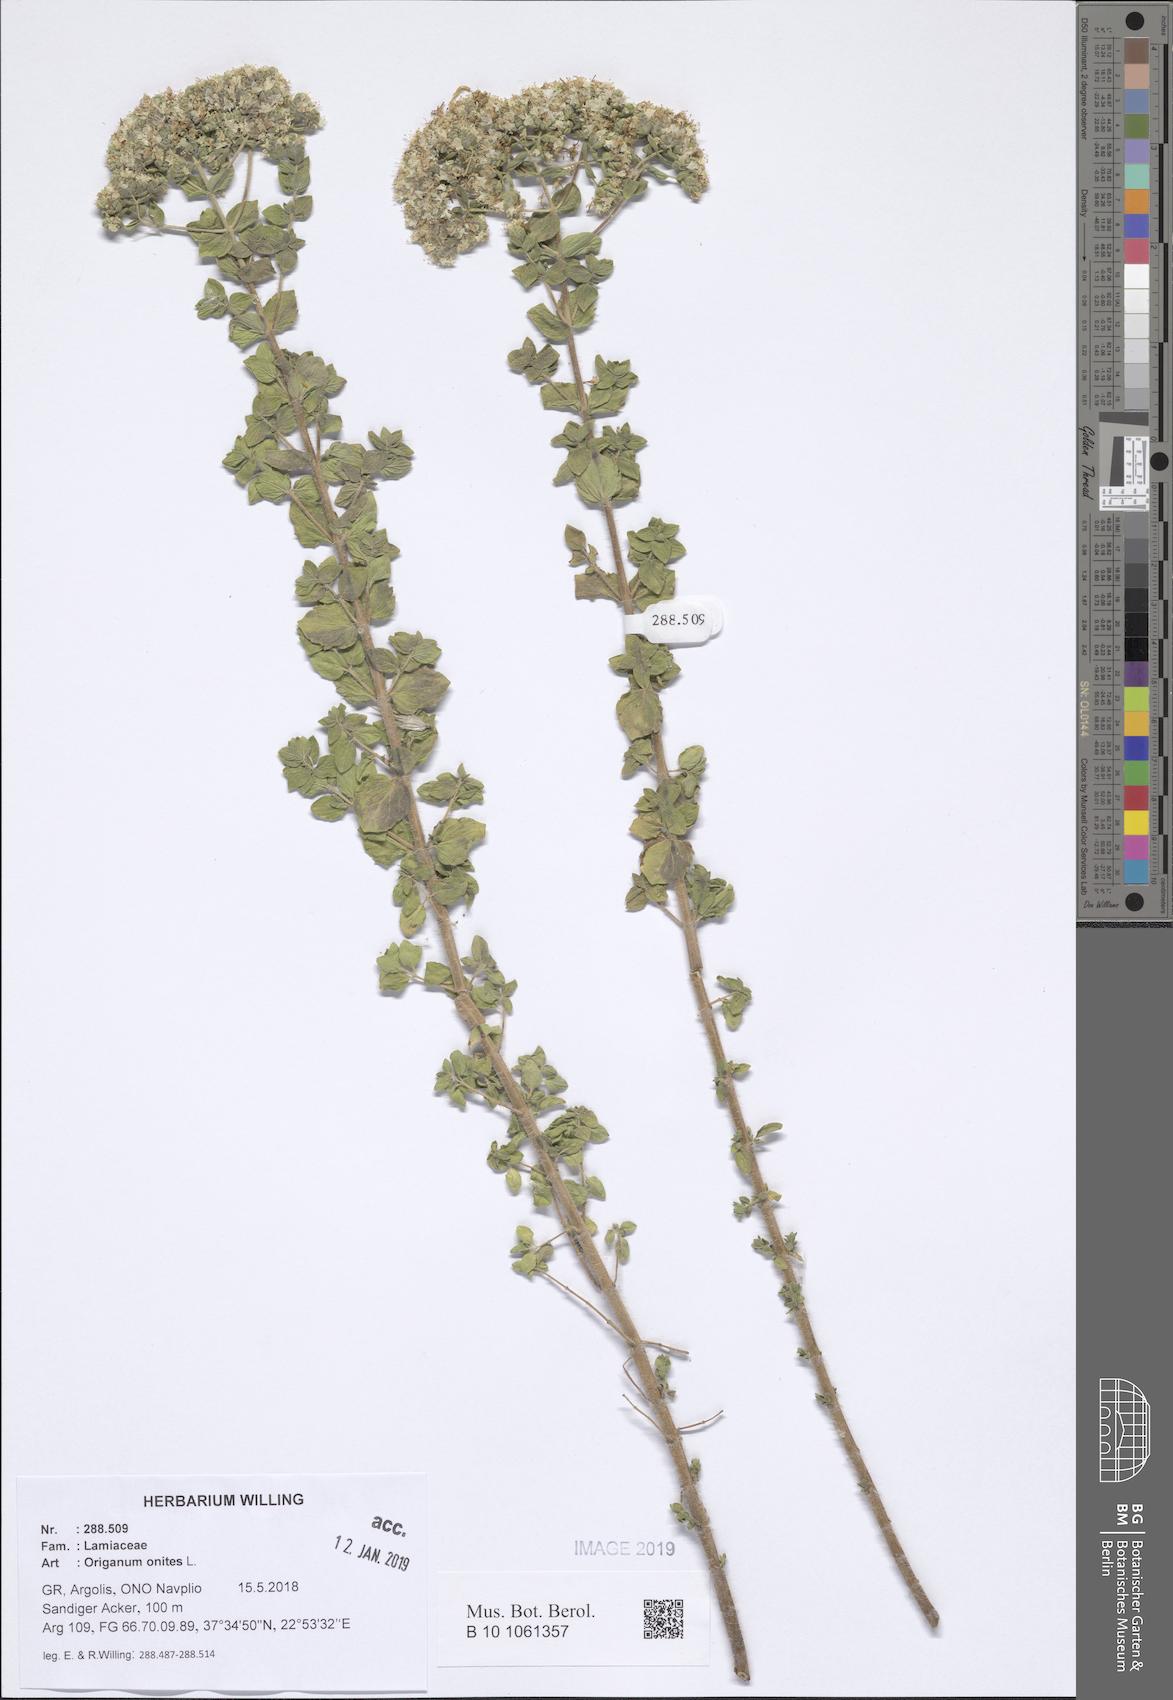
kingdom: Plantae
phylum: Tracheophyta
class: Magnoliopsida
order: Lamiales
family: Lamiaceae
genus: Origanum
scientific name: Origanum onites
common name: Turkish oregano
